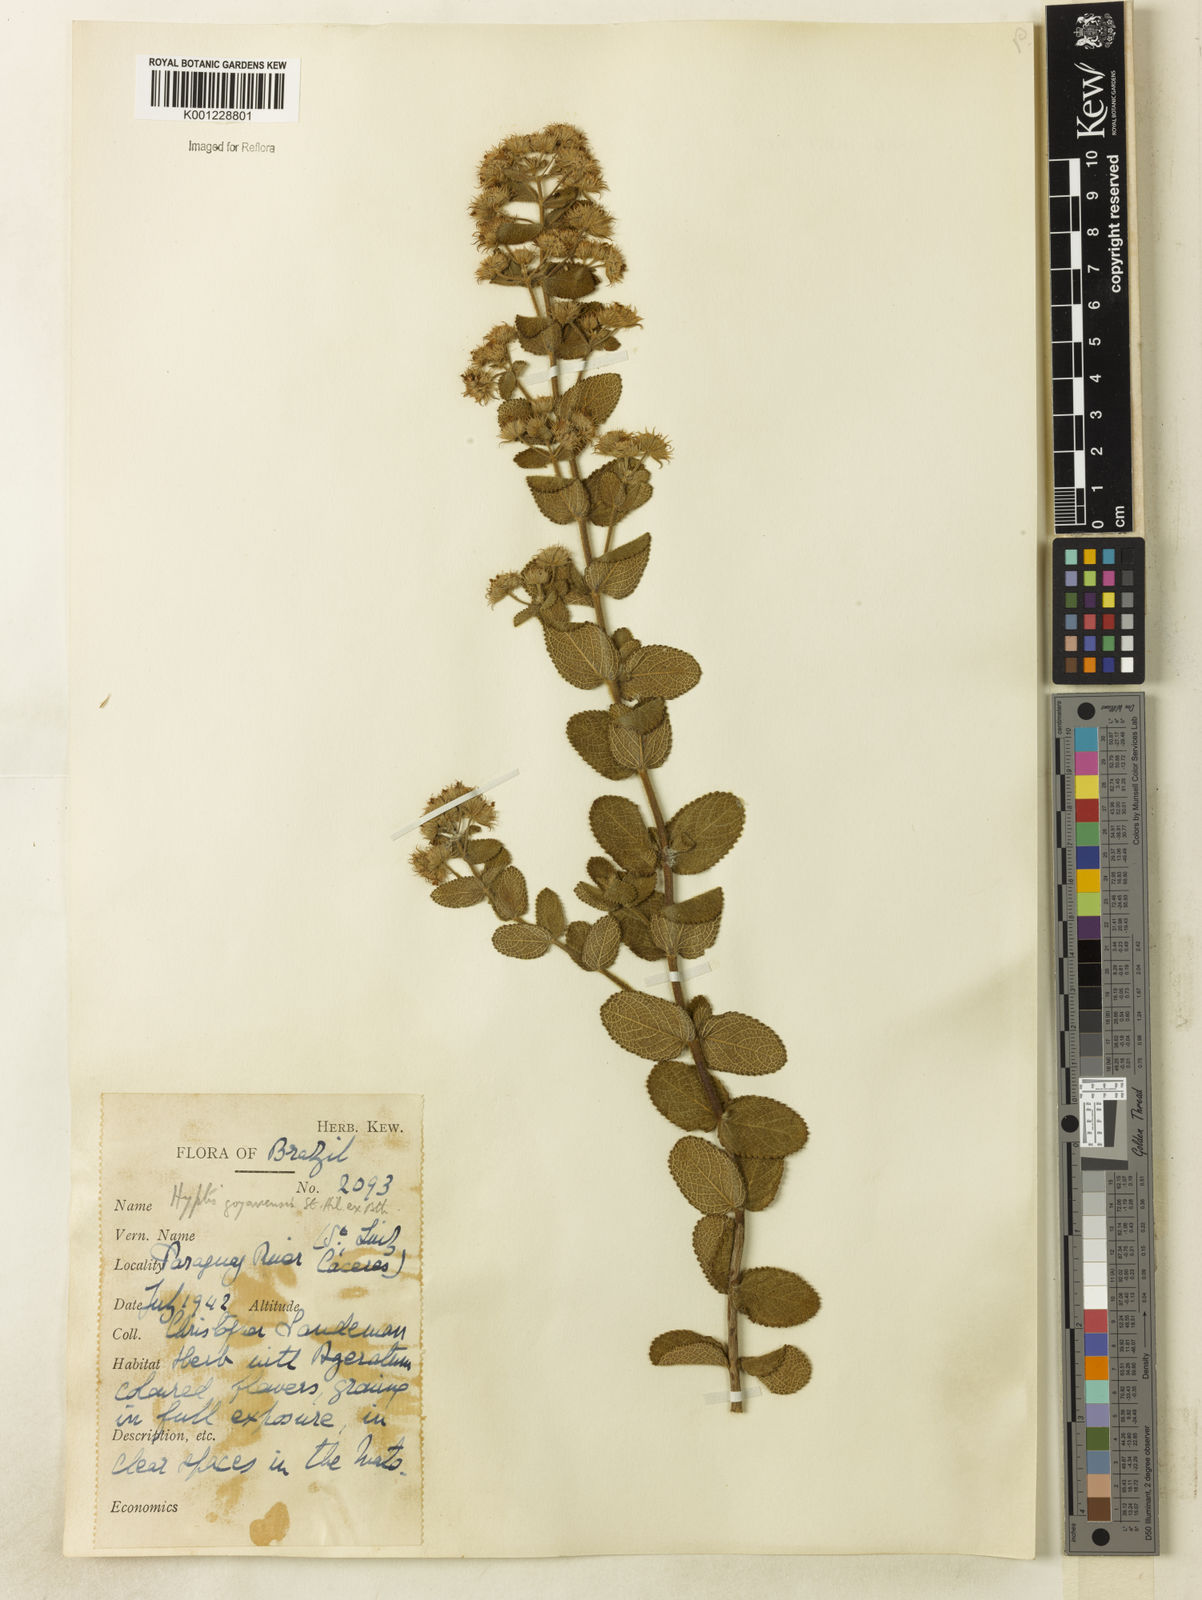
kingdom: Plantae
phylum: Tracheophyta
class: Magnoliopsida
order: Lamiales
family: Lamiaceae
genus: Hyptis
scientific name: Hyptis goyazensis
